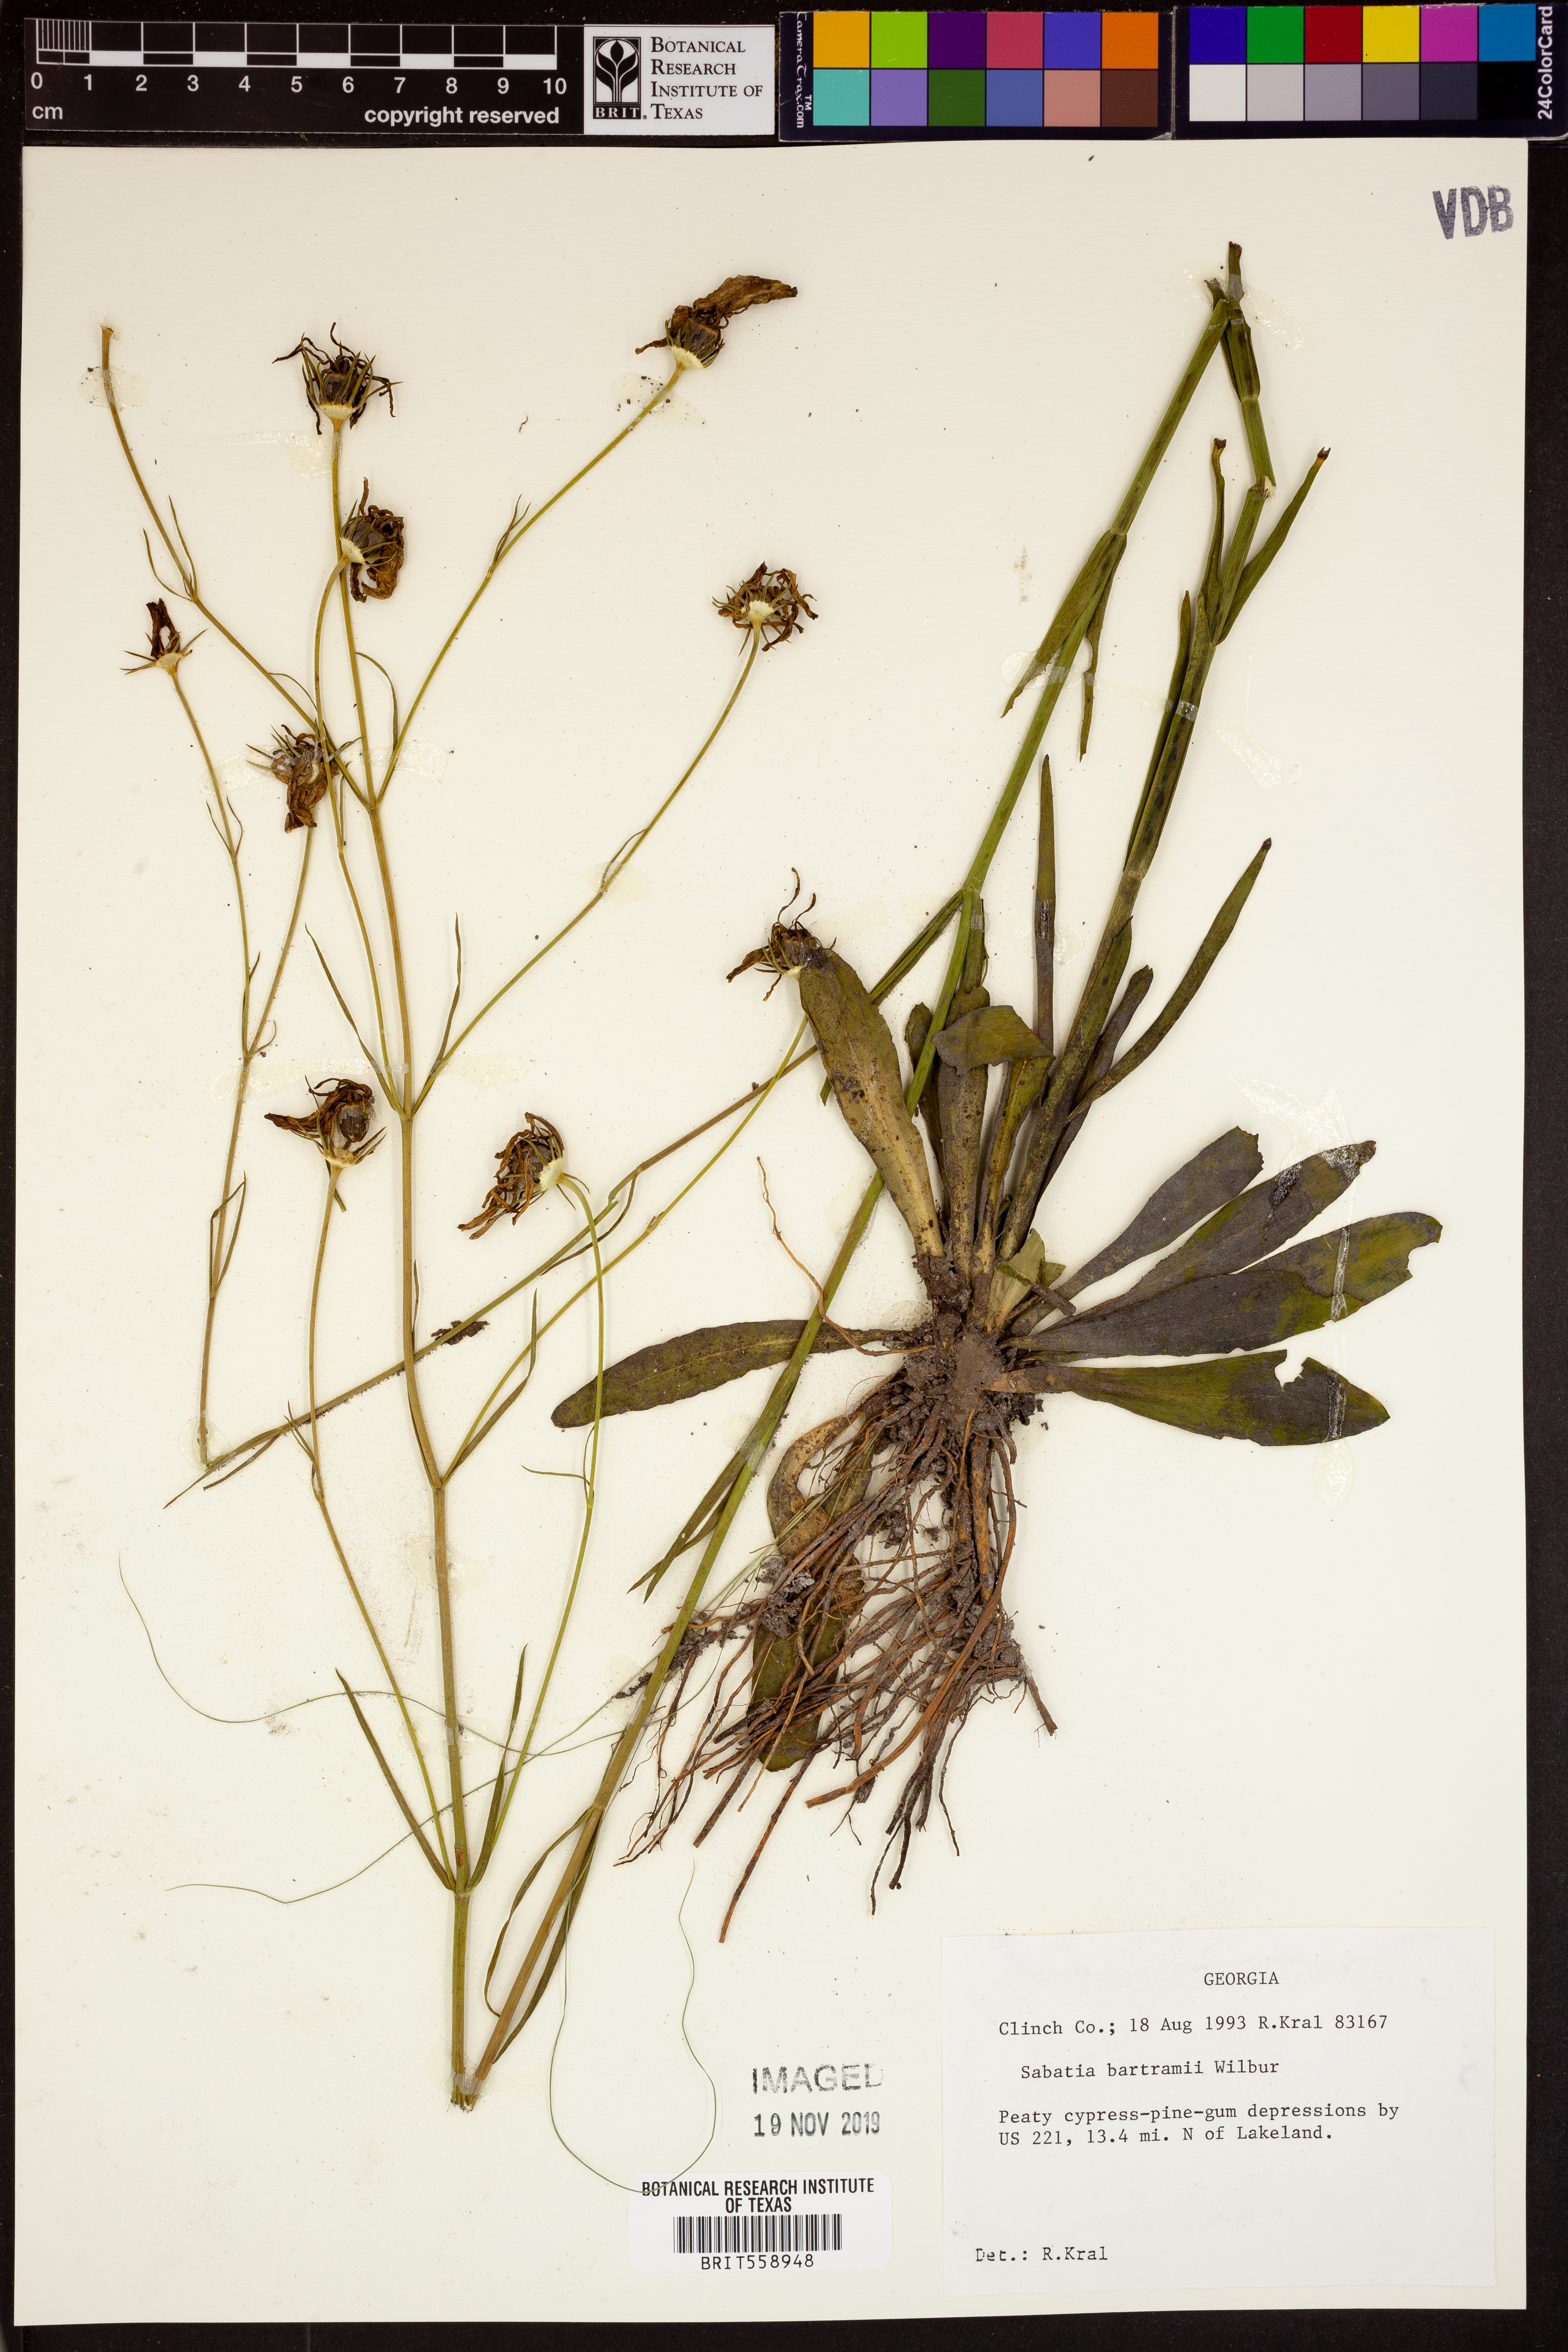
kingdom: Plantae
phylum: Tracheophyta
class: Magnoliopsida
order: Gentianales
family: Gentianaceae
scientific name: Gentianaceae
